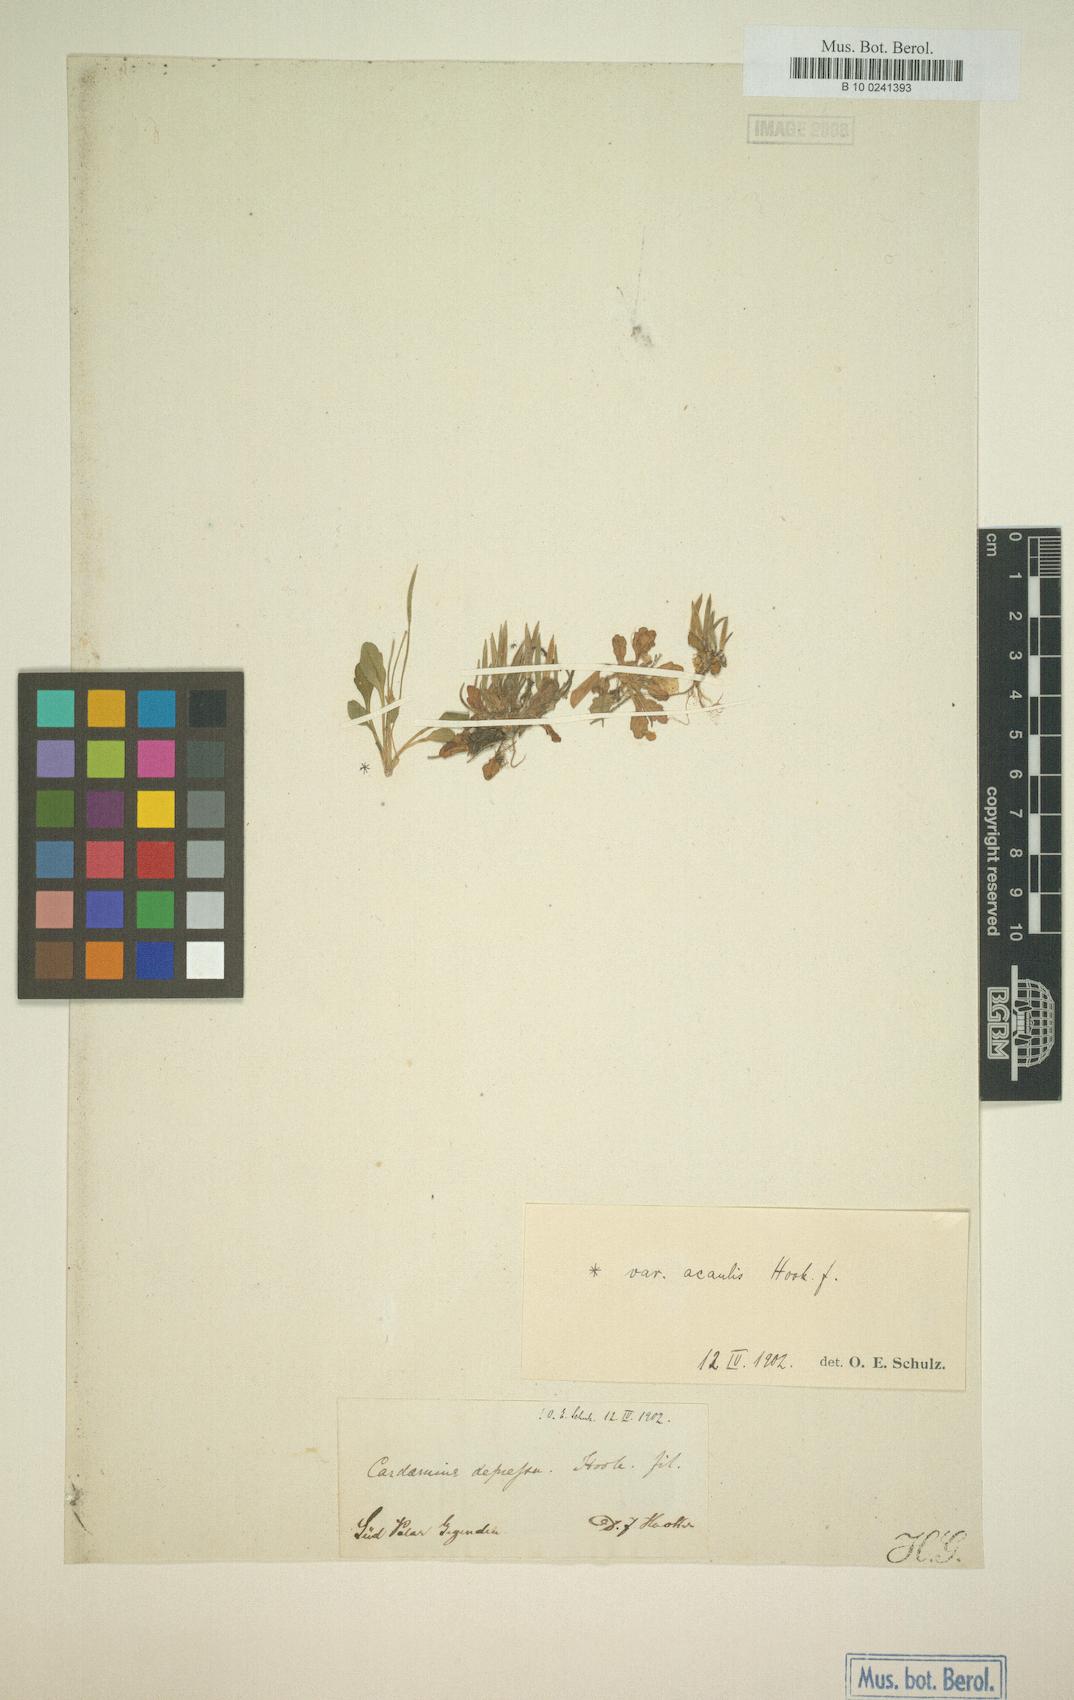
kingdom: Plantae
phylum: Tracheophyta
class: Magnoliopsida
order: Brassicales
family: Brassicaceae
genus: Cardamine
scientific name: Cardamine depressa
